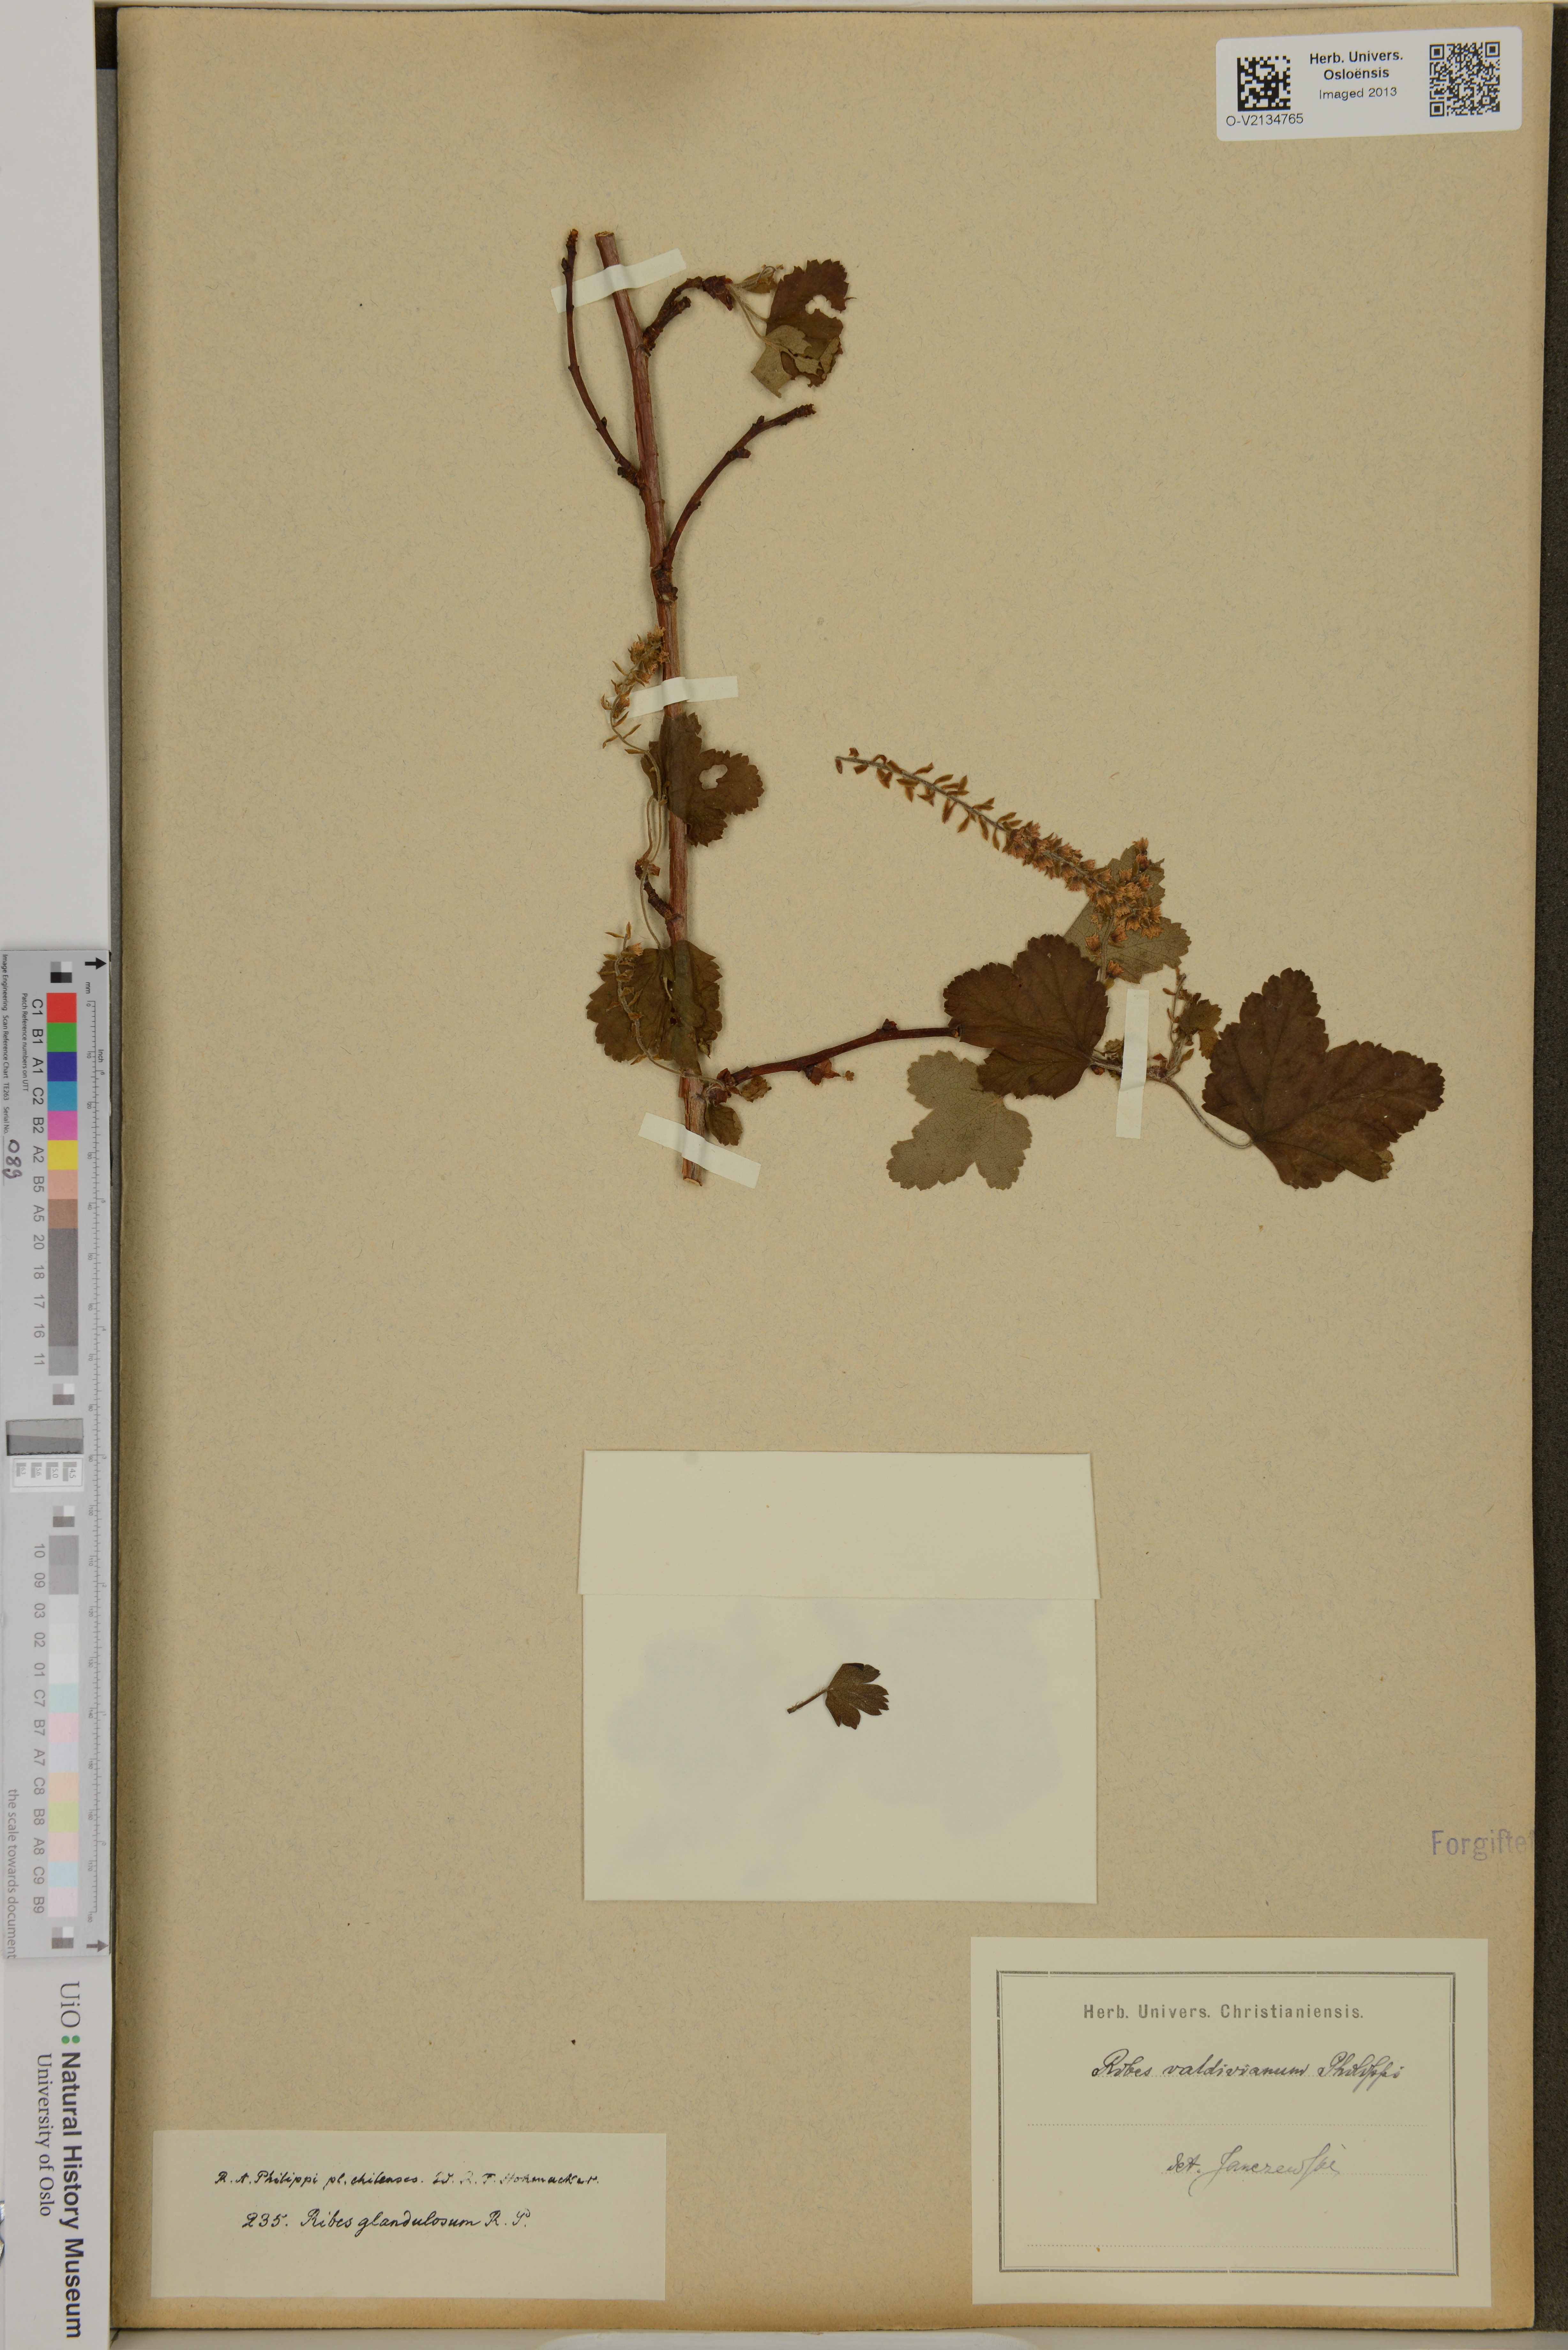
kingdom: Plantae
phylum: Tracheophyta
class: Magnoliopsida
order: Saxifragales
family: Grossulariaceae
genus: Ribes
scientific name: Ribes valdivianum
